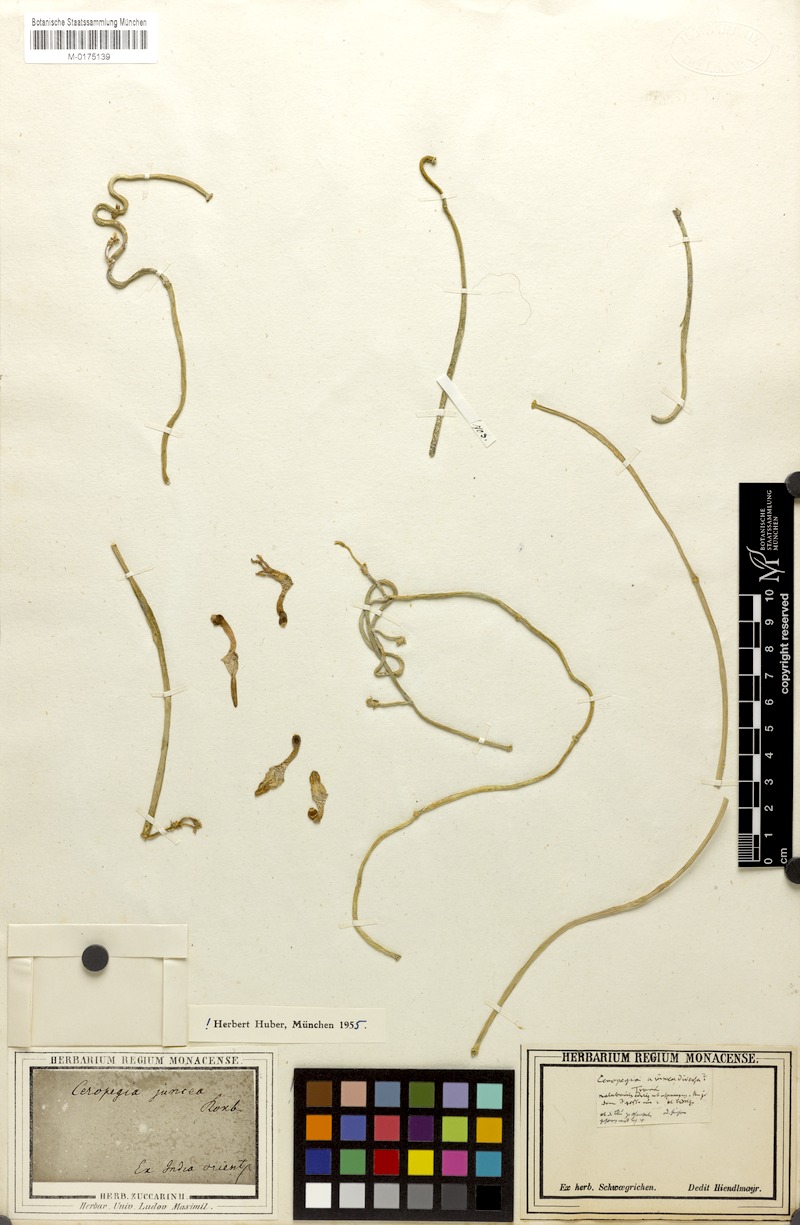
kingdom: Plantae
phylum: Tracheophyta
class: Magnoliopsida
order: Gentianales
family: Apocynaceae
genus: Ceropegia
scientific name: Ceropegia juncea
